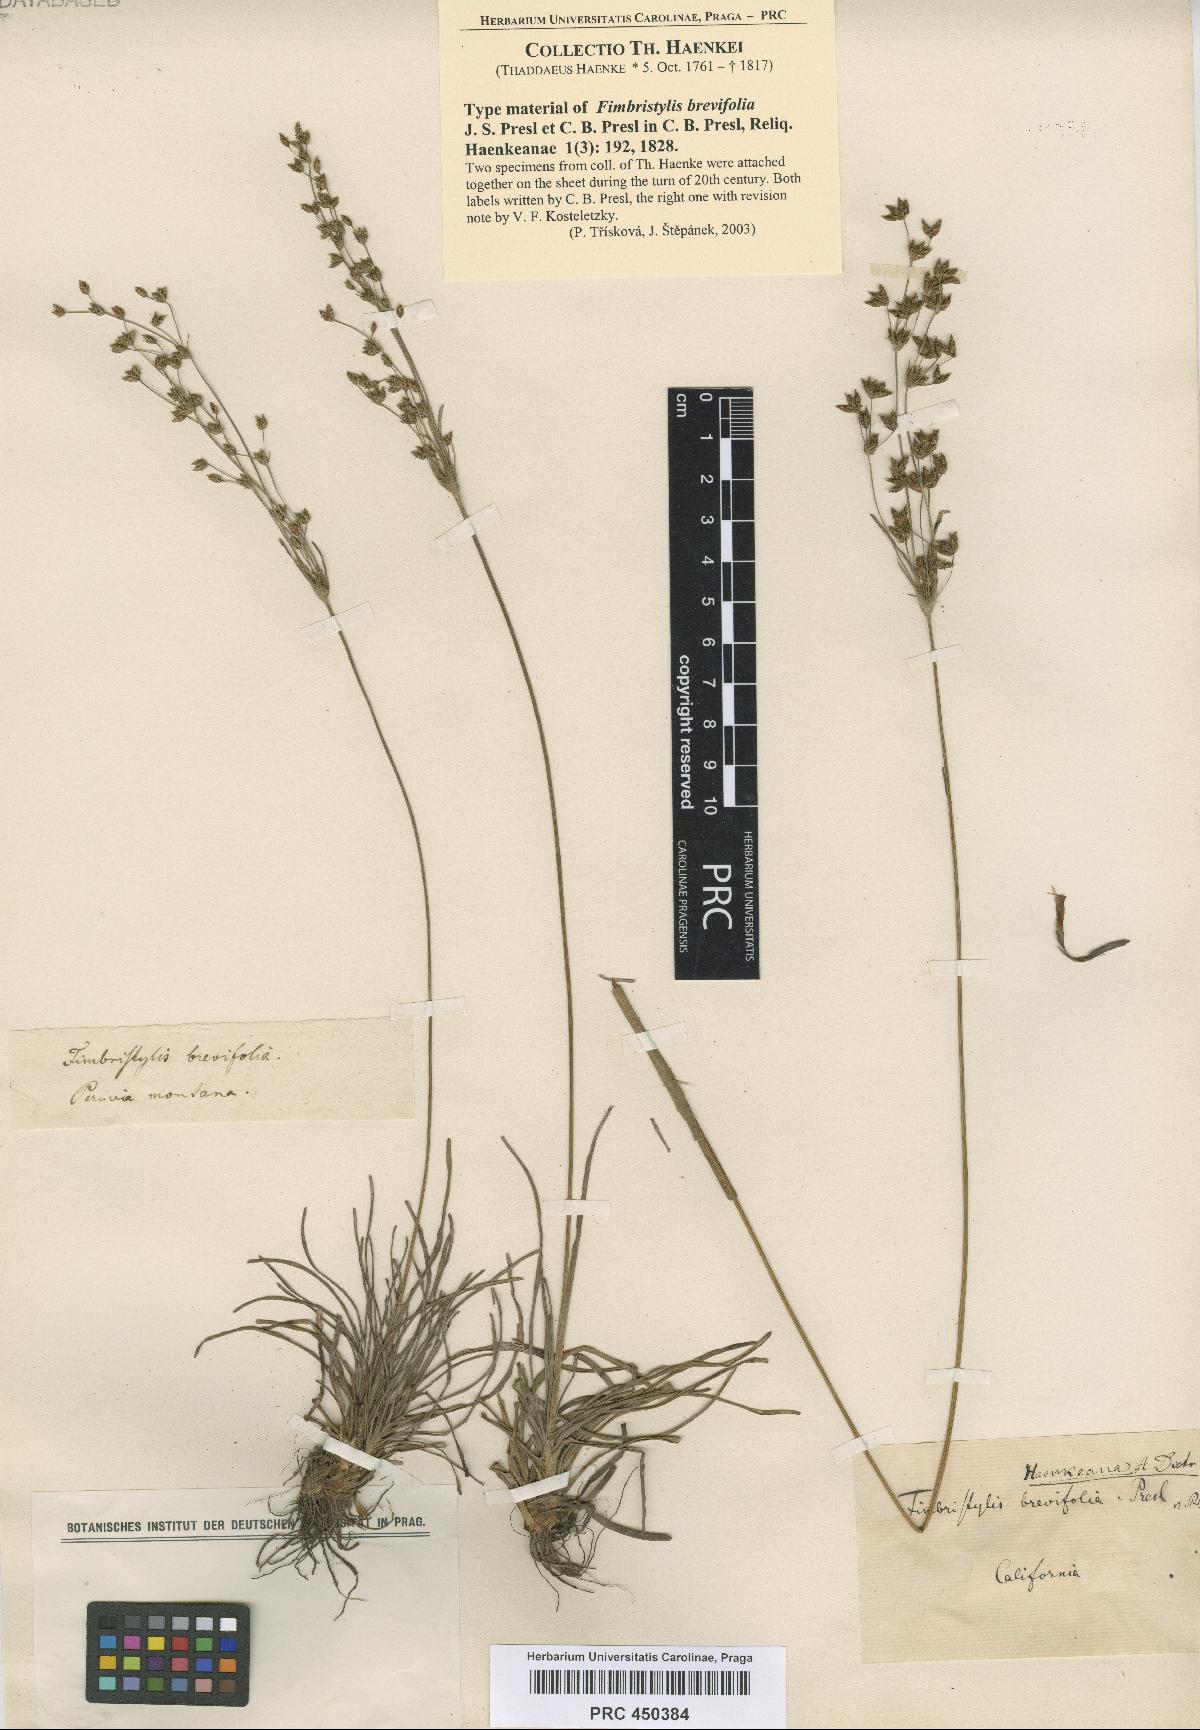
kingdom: Plantae
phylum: Tracheophyta
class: Liliopsida
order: Poales
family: Cyperaceae
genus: Fimbristylis
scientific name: Fimbristylis falcata
